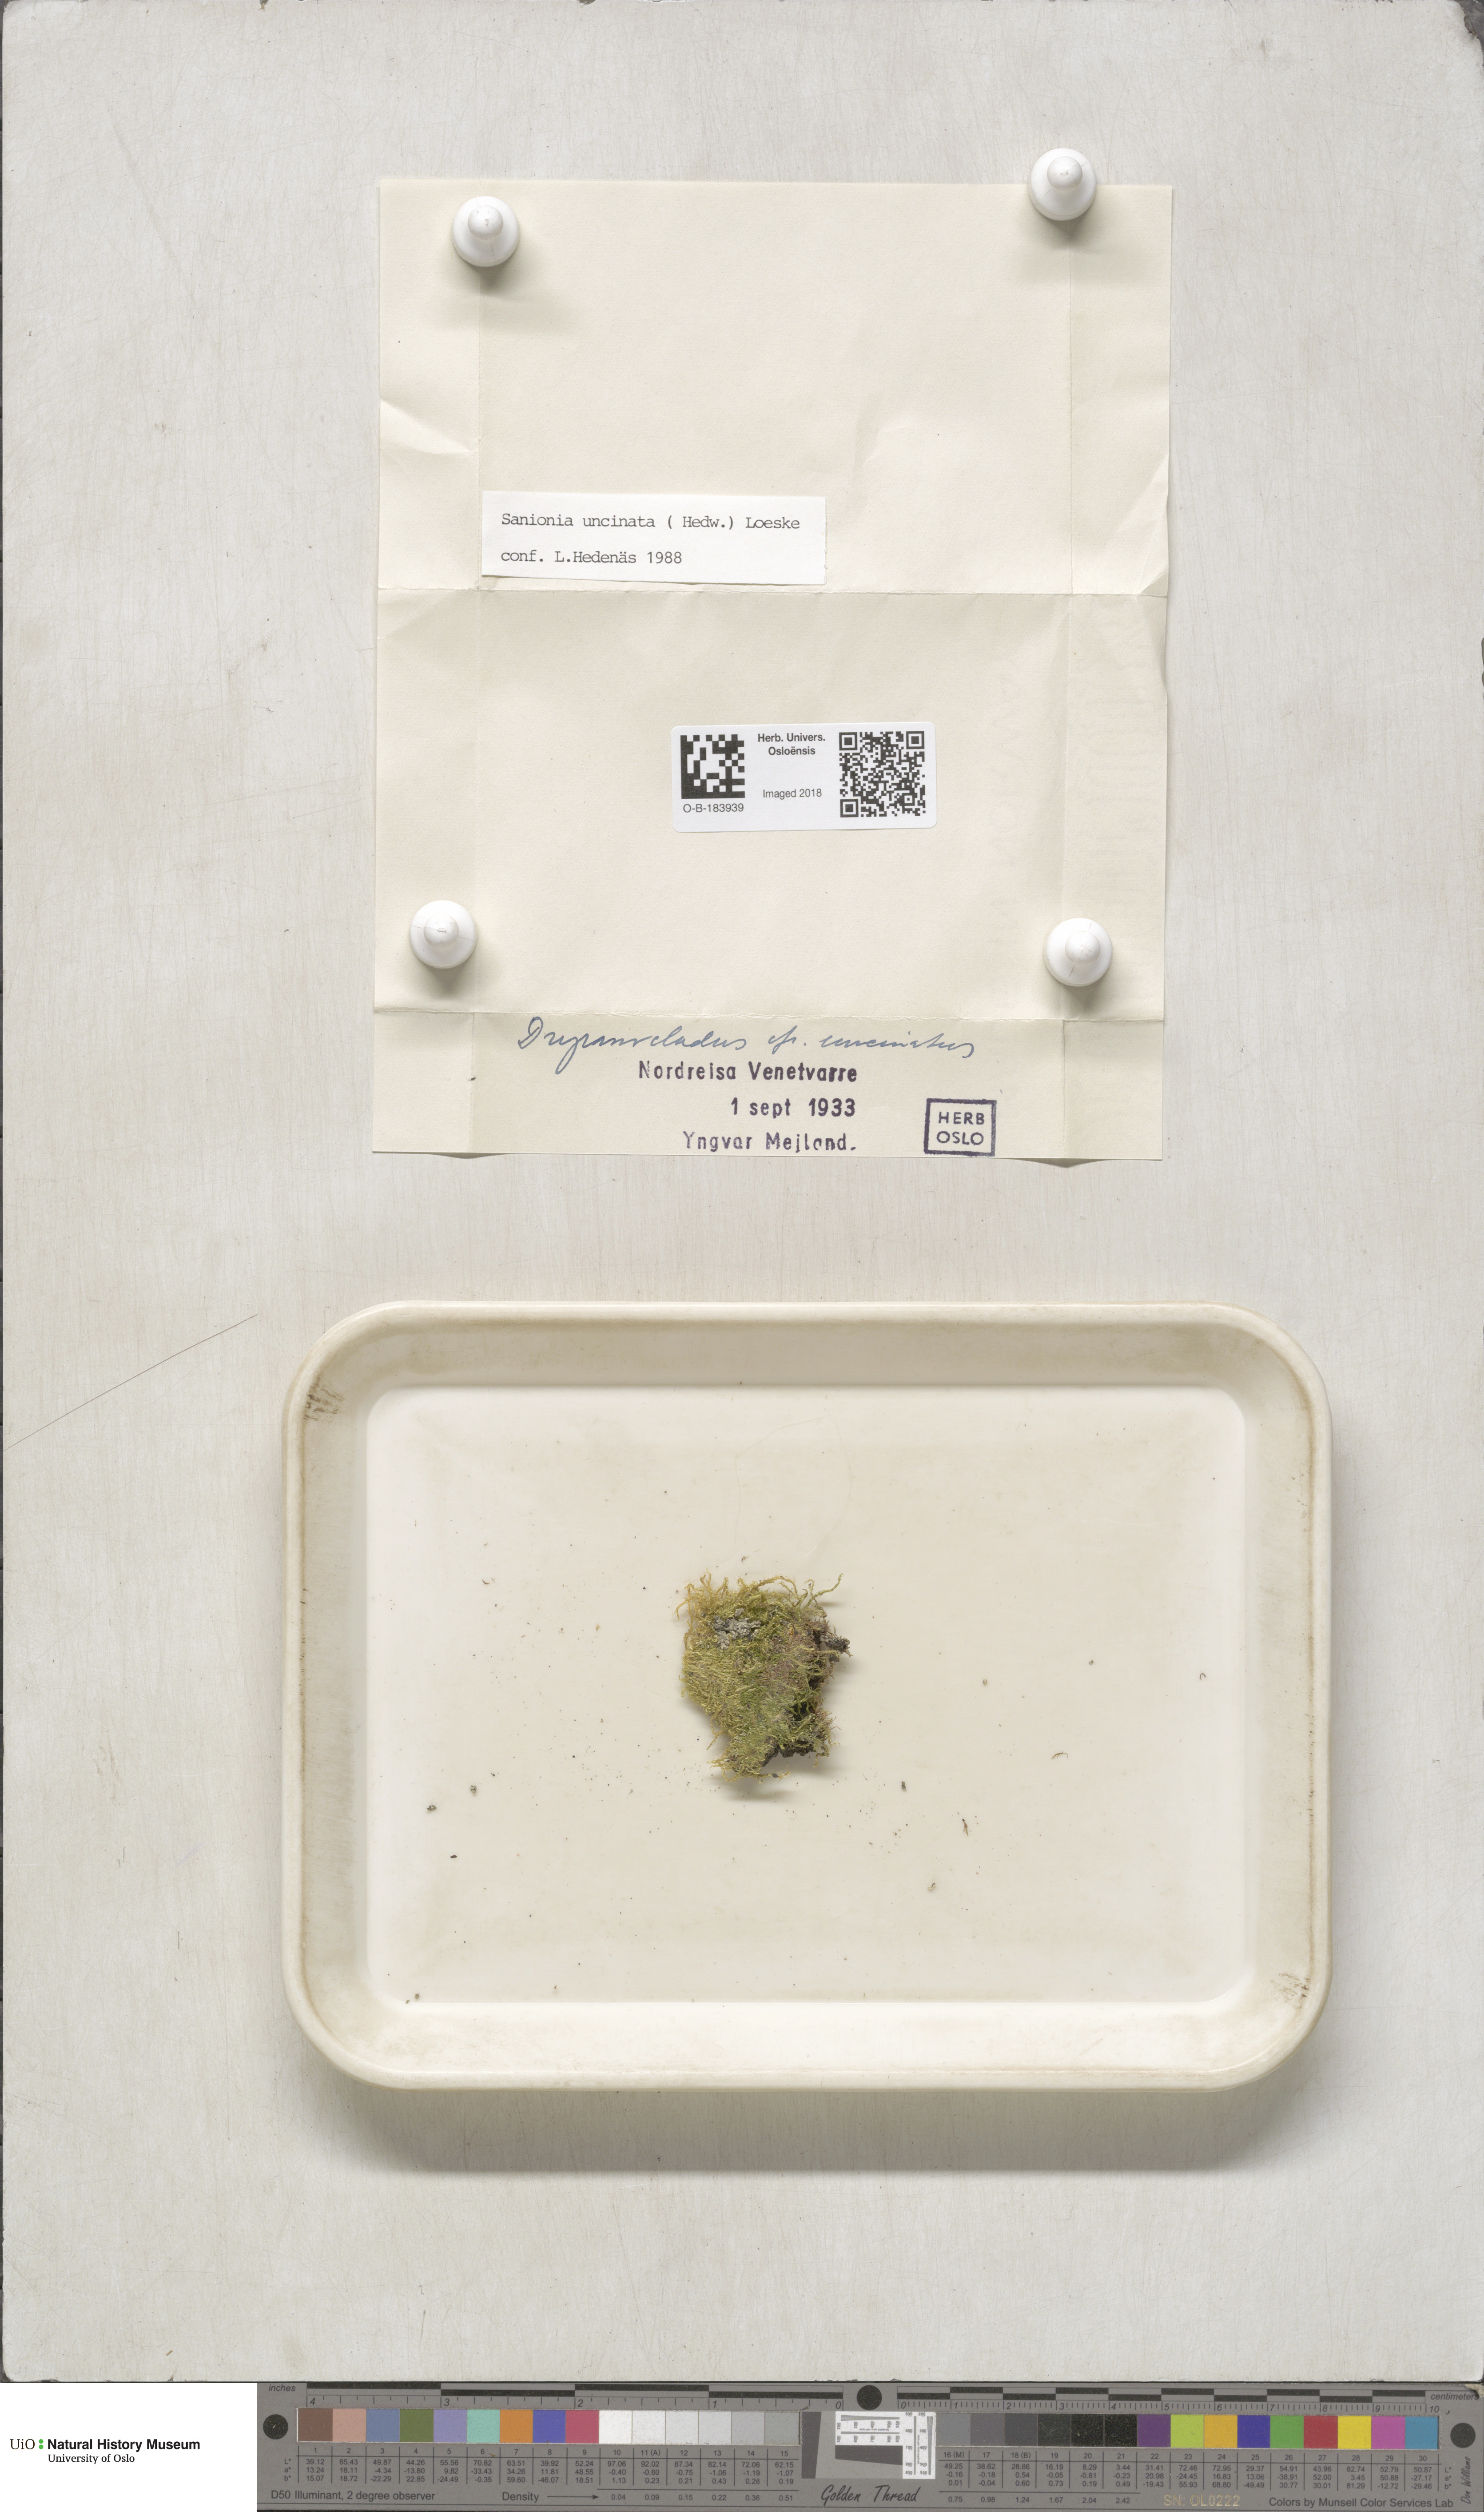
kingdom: Plantae
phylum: Bryophyta
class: Bryopsida
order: Hypnales
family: Scorpidiaceae
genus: Sanionia
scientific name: Sanionia uncinata
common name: Sickle moss
